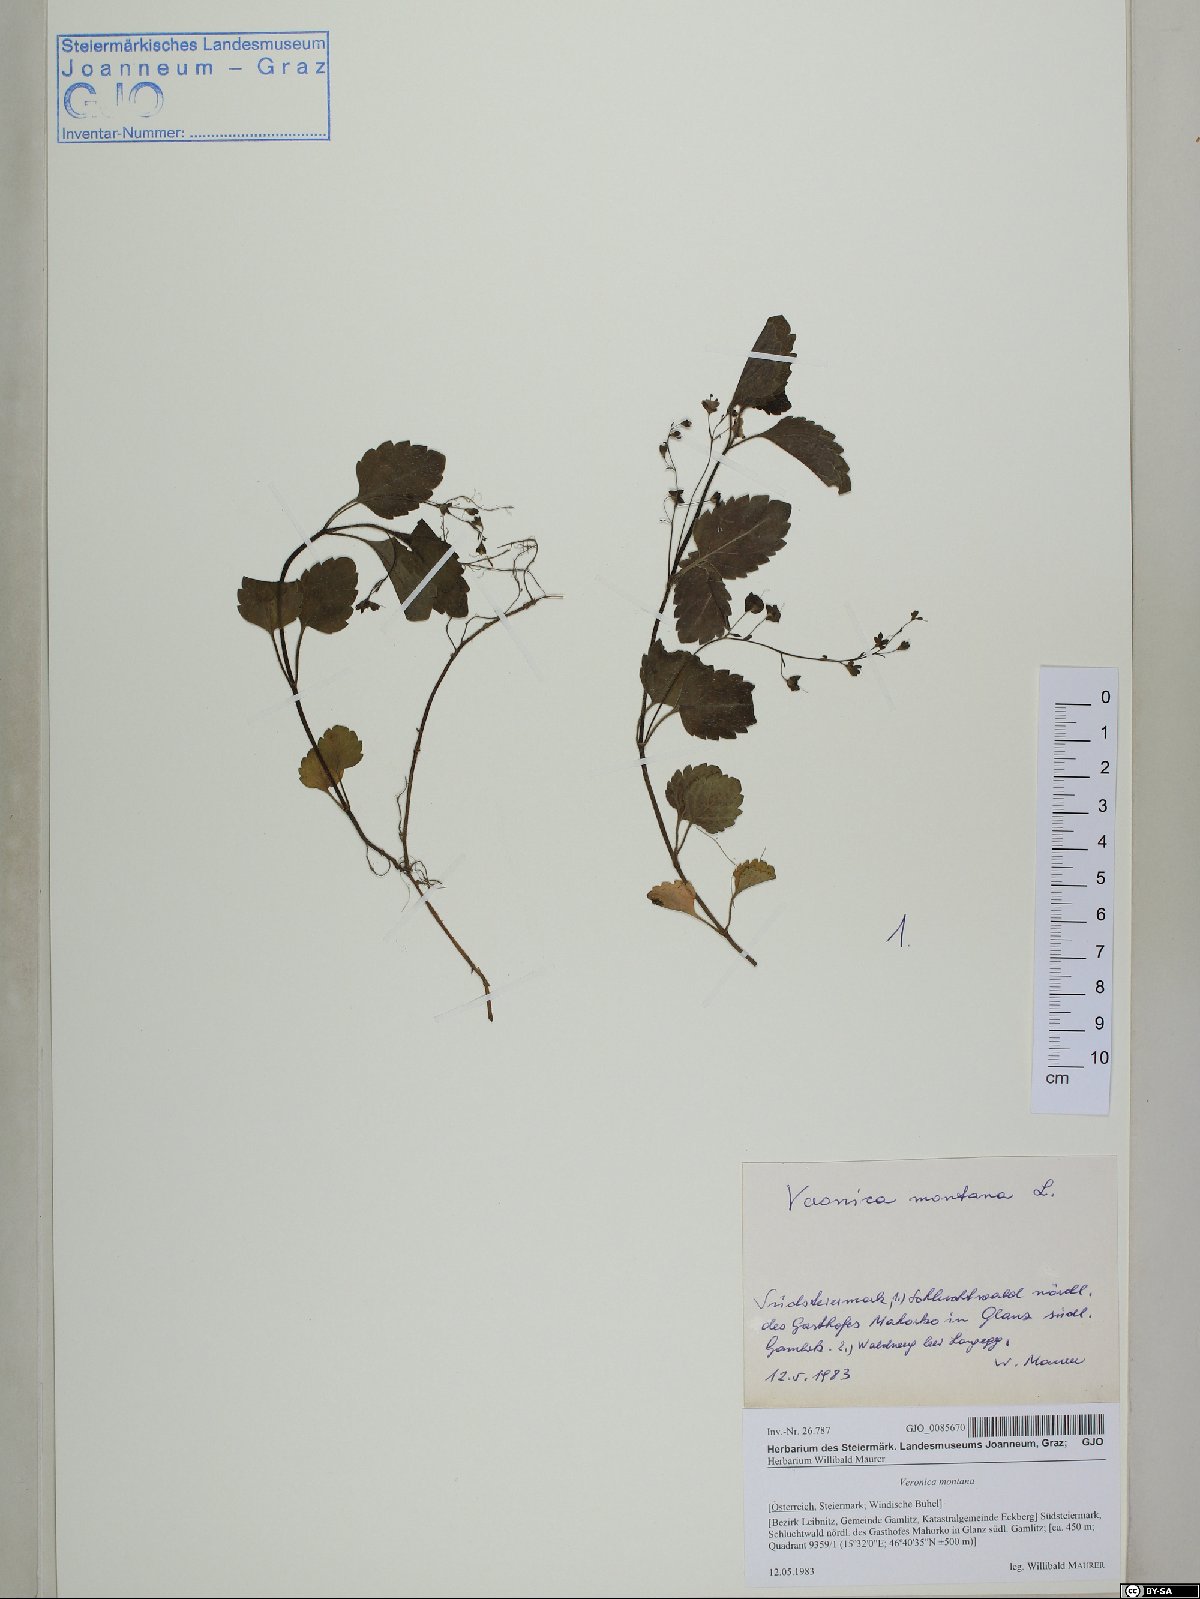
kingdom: Plantae
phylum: Tracheophyta
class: Magnoliopsida
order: Lamiales
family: Plantaginaceae
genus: Veronica
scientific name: Veronica montana
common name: Wood speedwell
